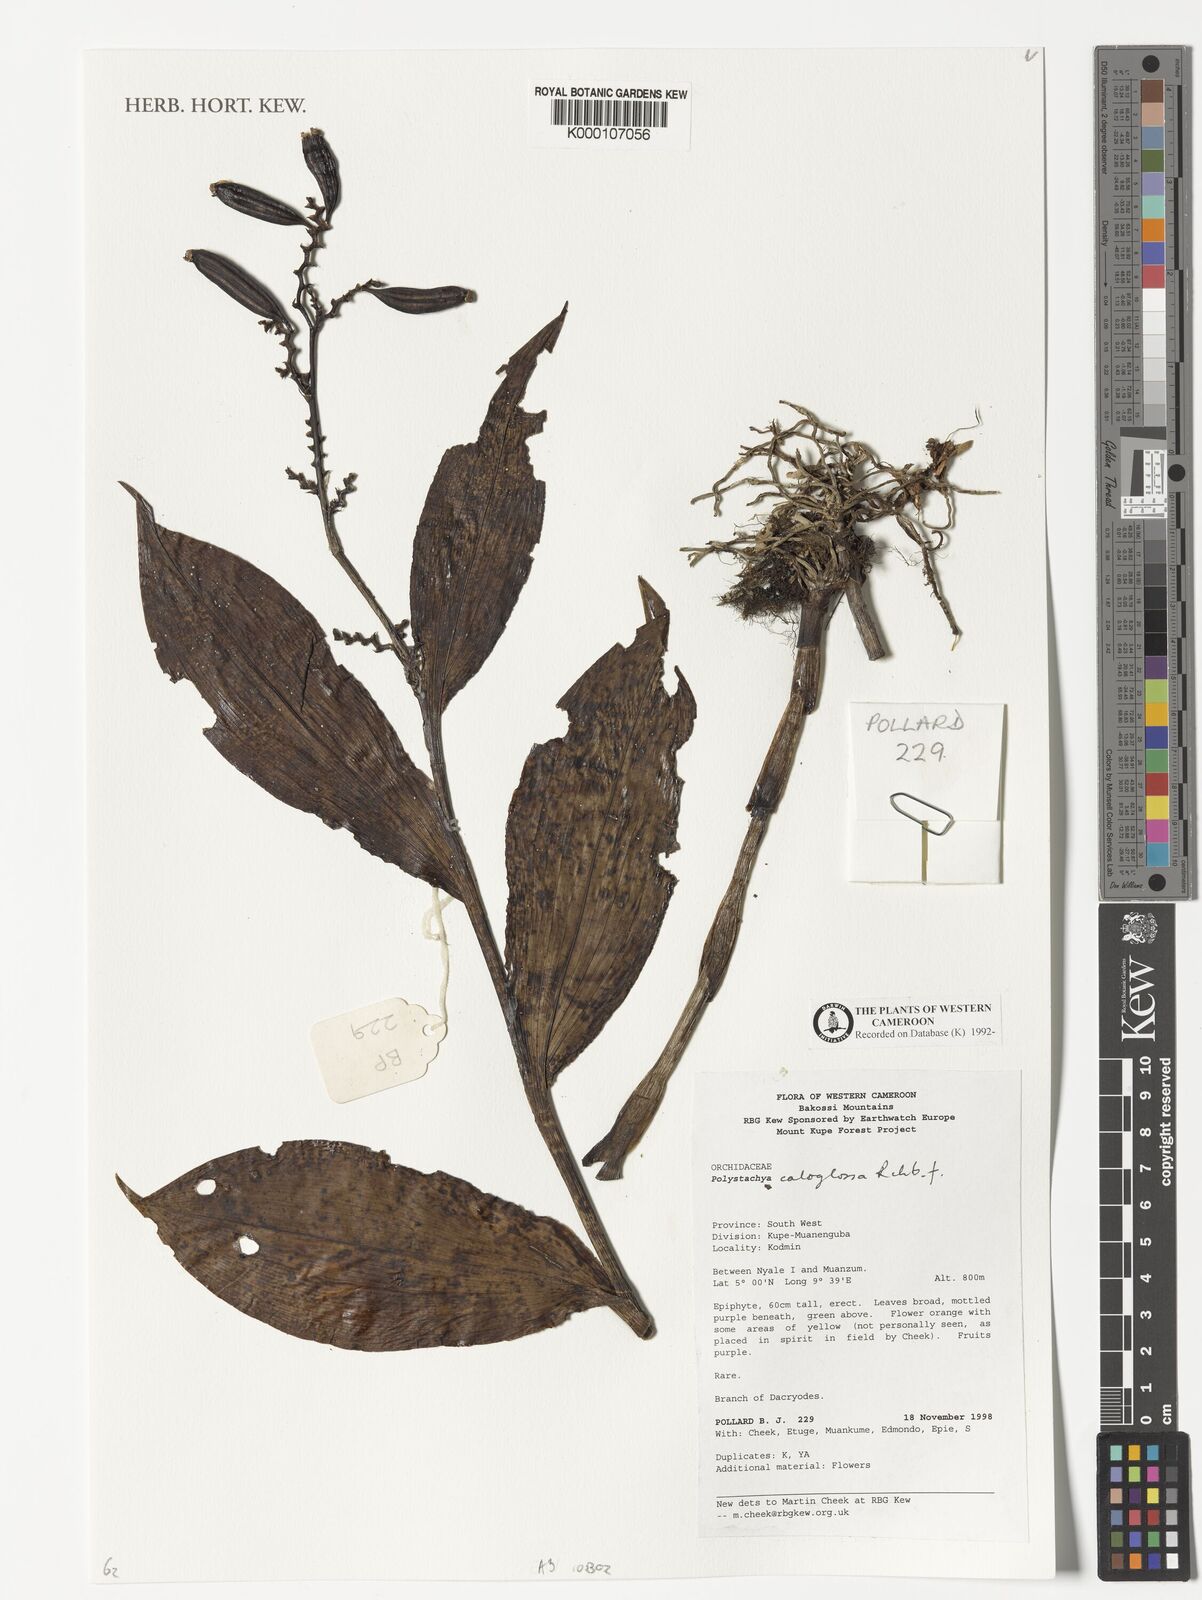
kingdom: Plantae
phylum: Tracheophyta
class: Liliopsida
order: Asparagales
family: Orchidaceae
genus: Polystachya
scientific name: Polystachya caloglossa
